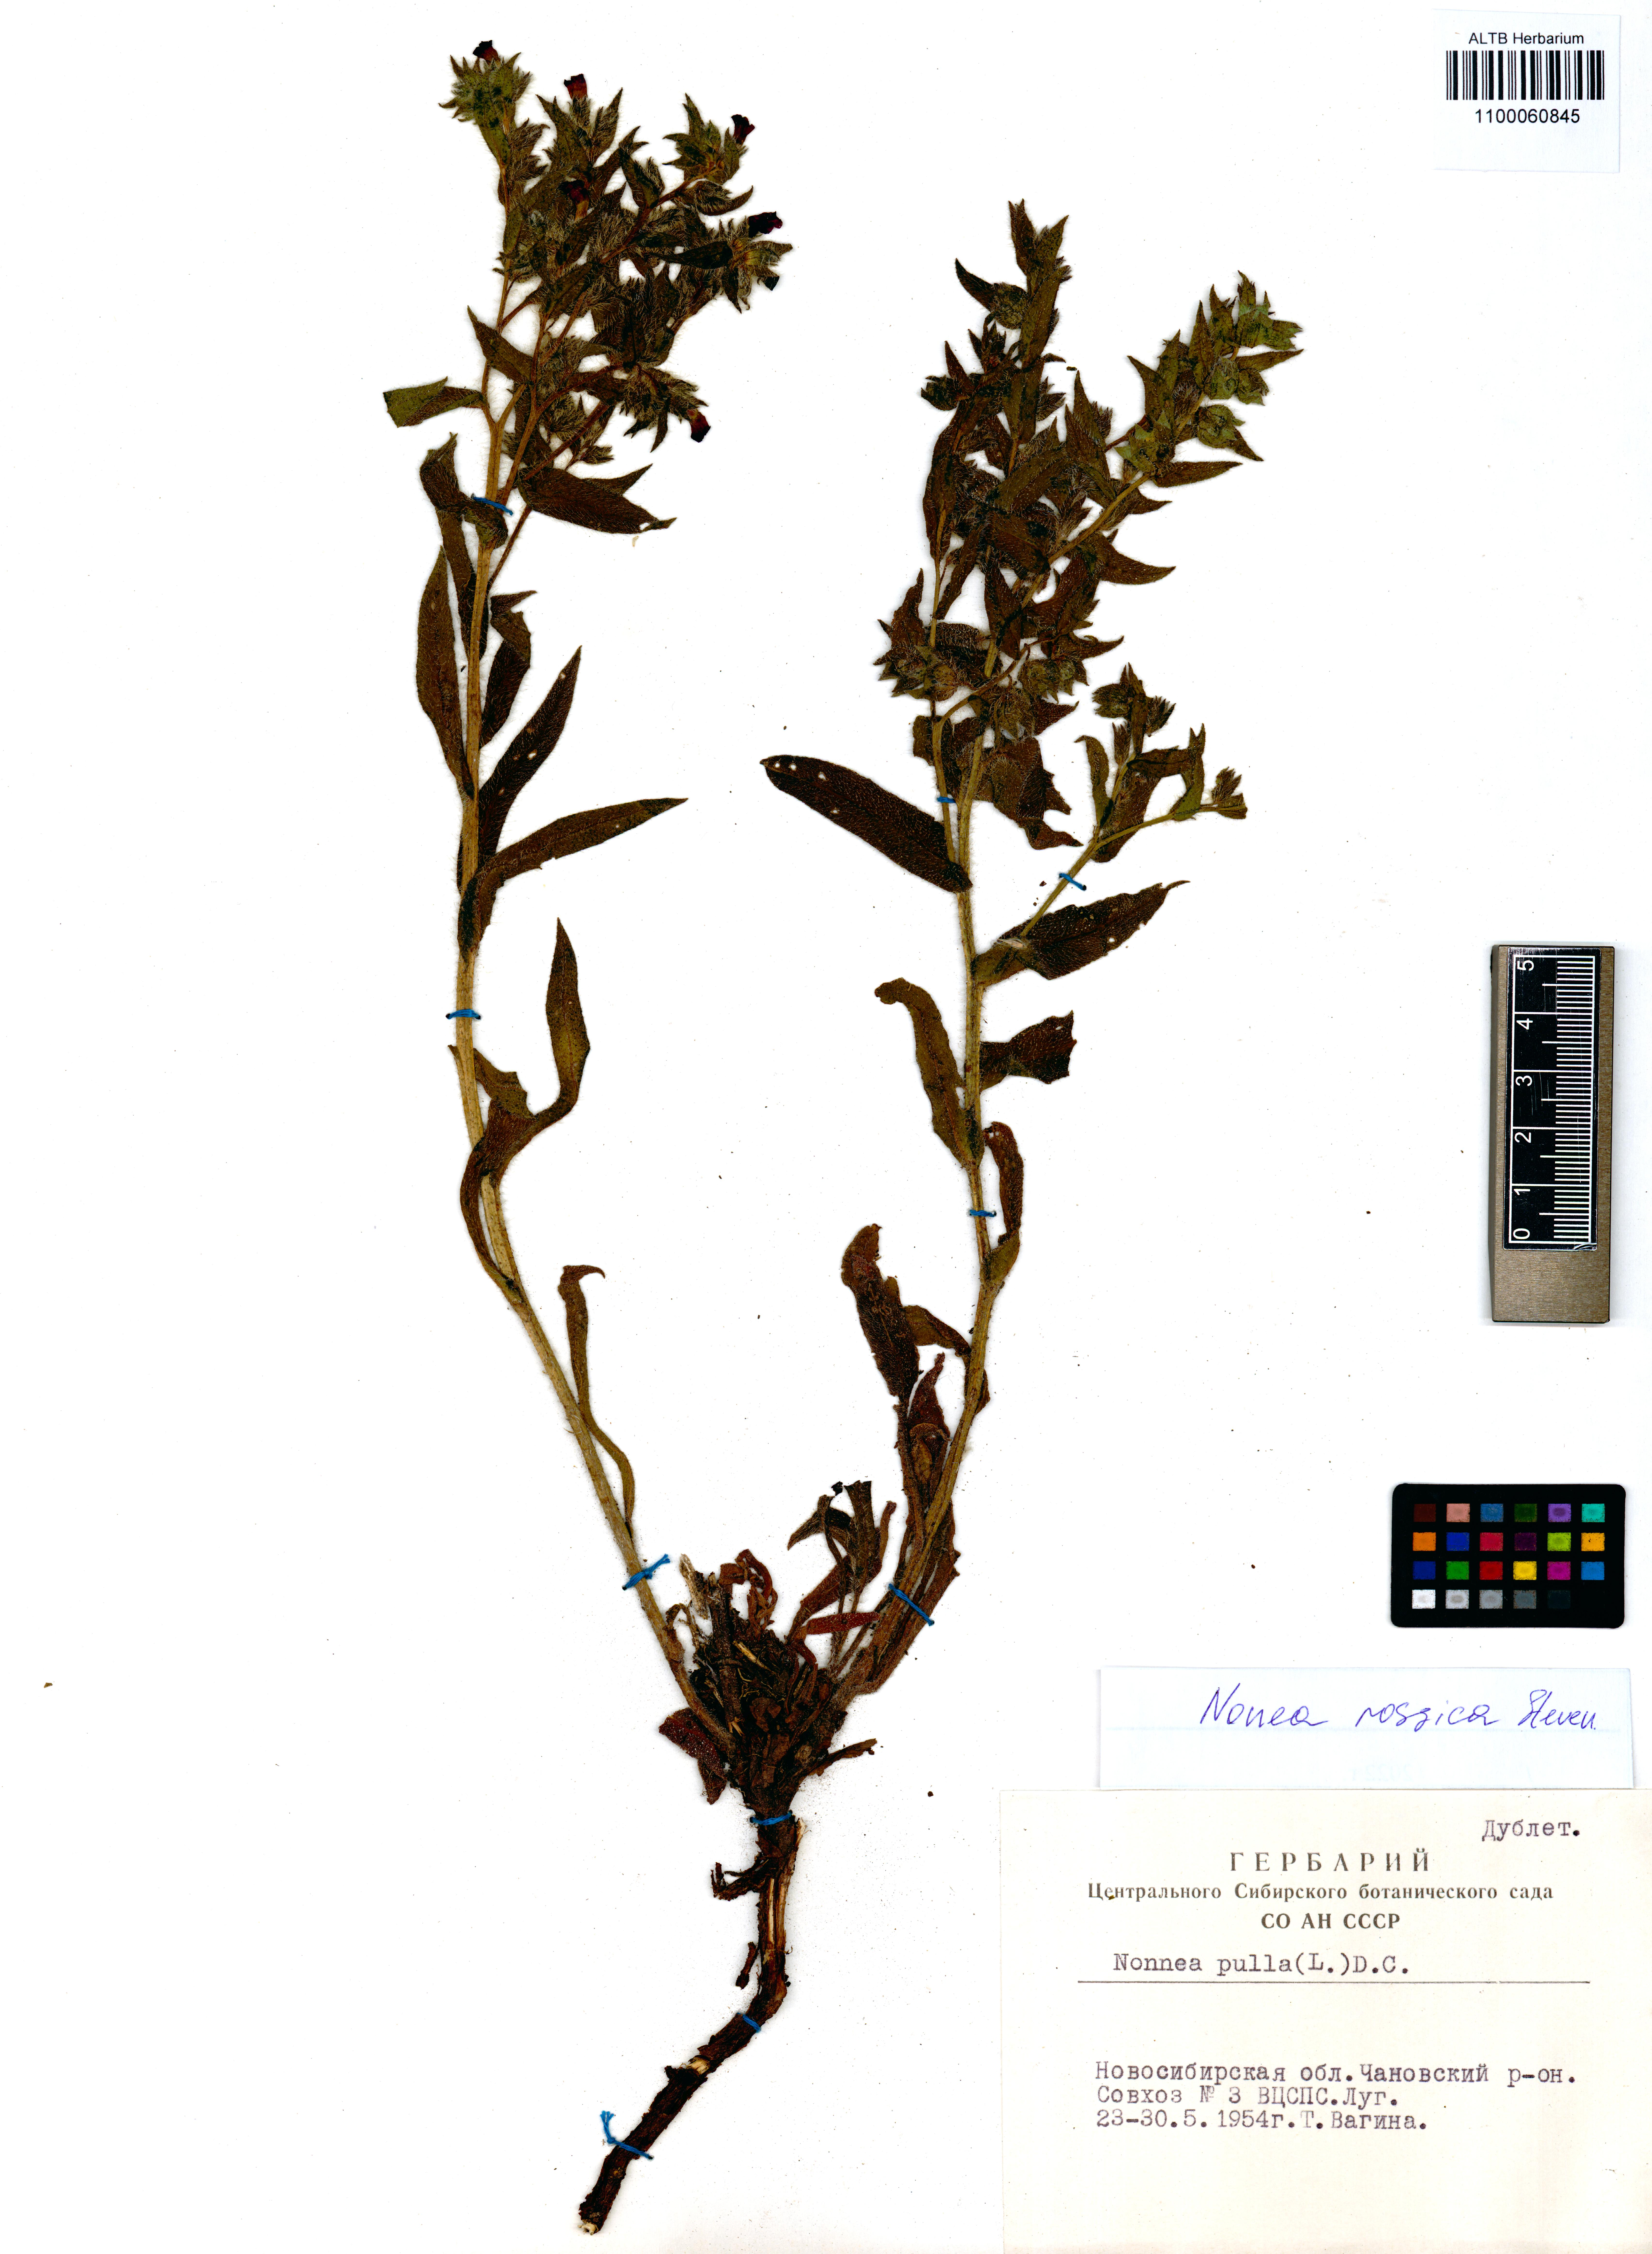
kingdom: Plantae
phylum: Tracheophyta
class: Magnoliopsida
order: Boraginales
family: Boraginaceae
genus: Nonea
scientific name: Nonea pulla
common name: Brown nonea
